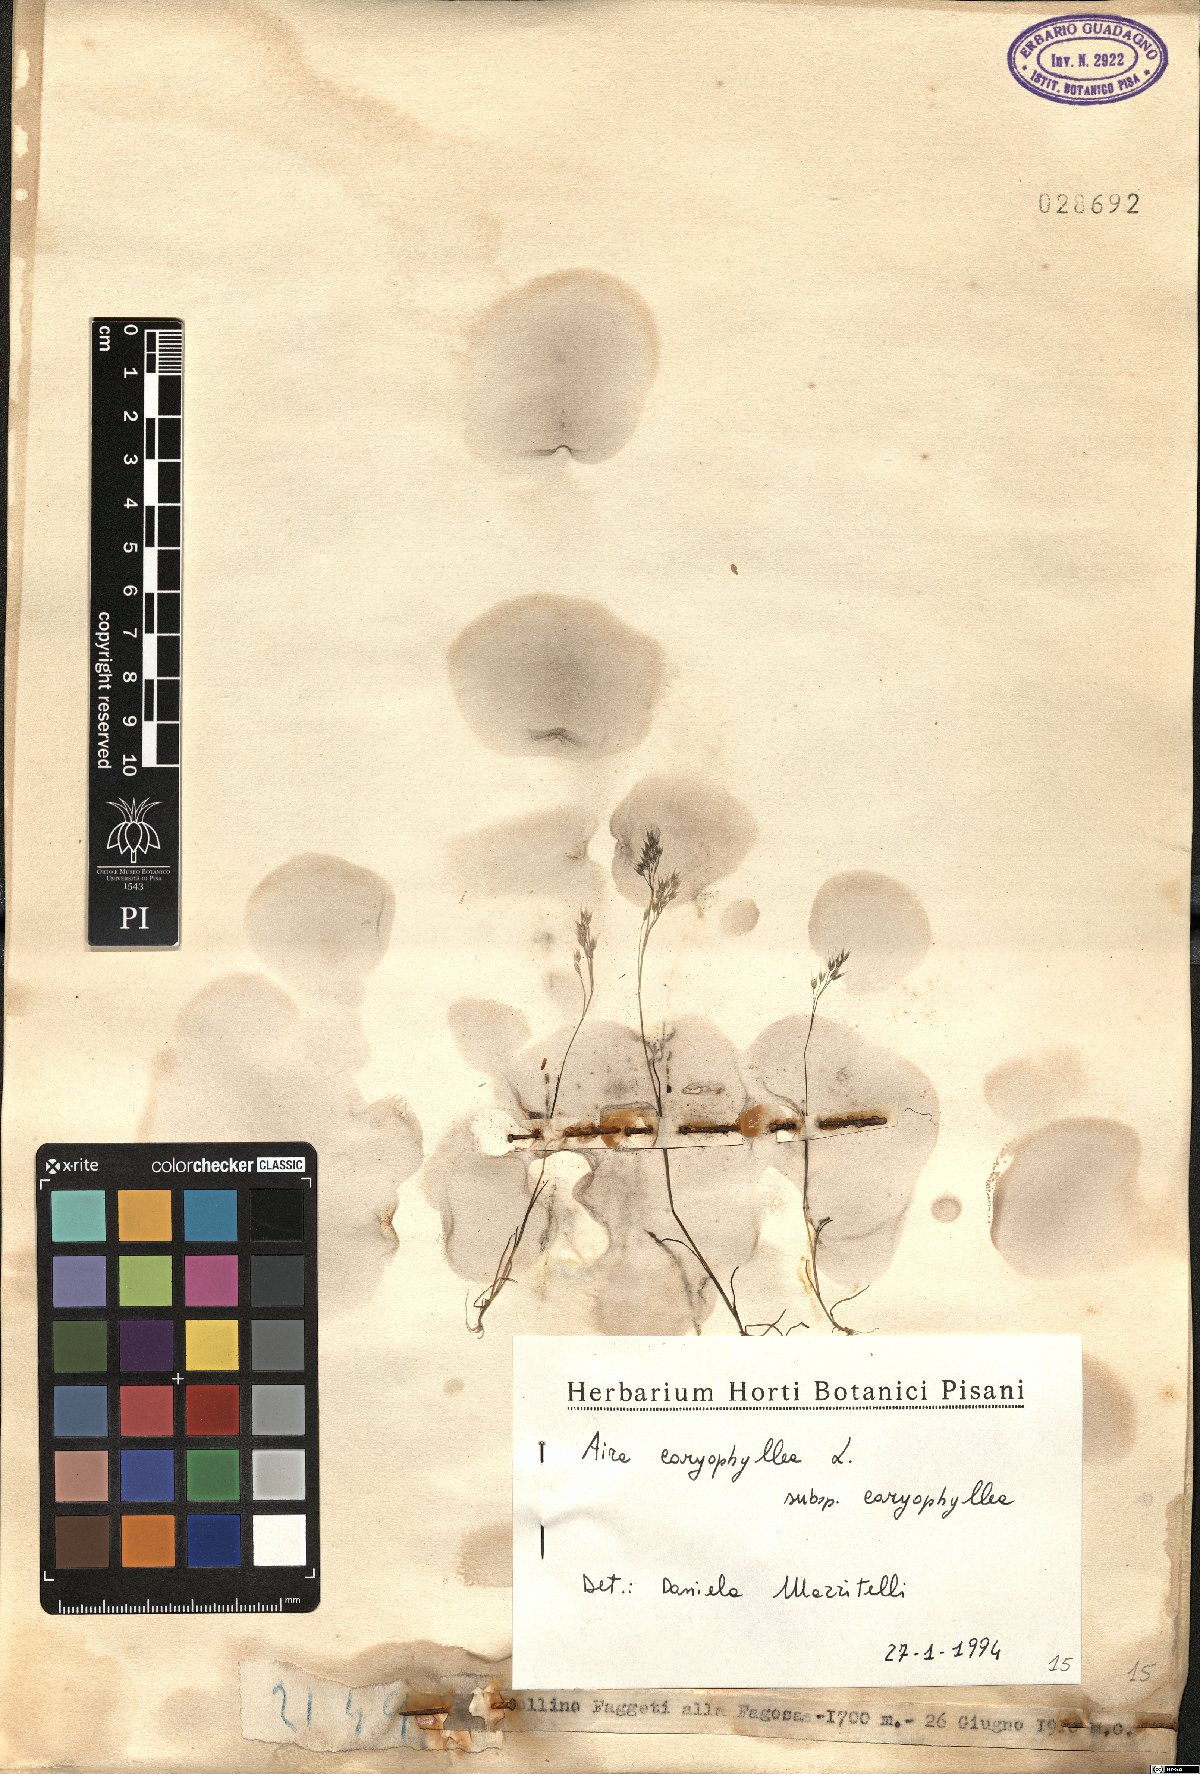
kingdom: Plantae
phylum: Tracheophyta
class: Liliopsida
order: Poales
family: Poaceae
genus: Aira
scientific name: Aira caryophyllea
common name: Silver hairgrass
